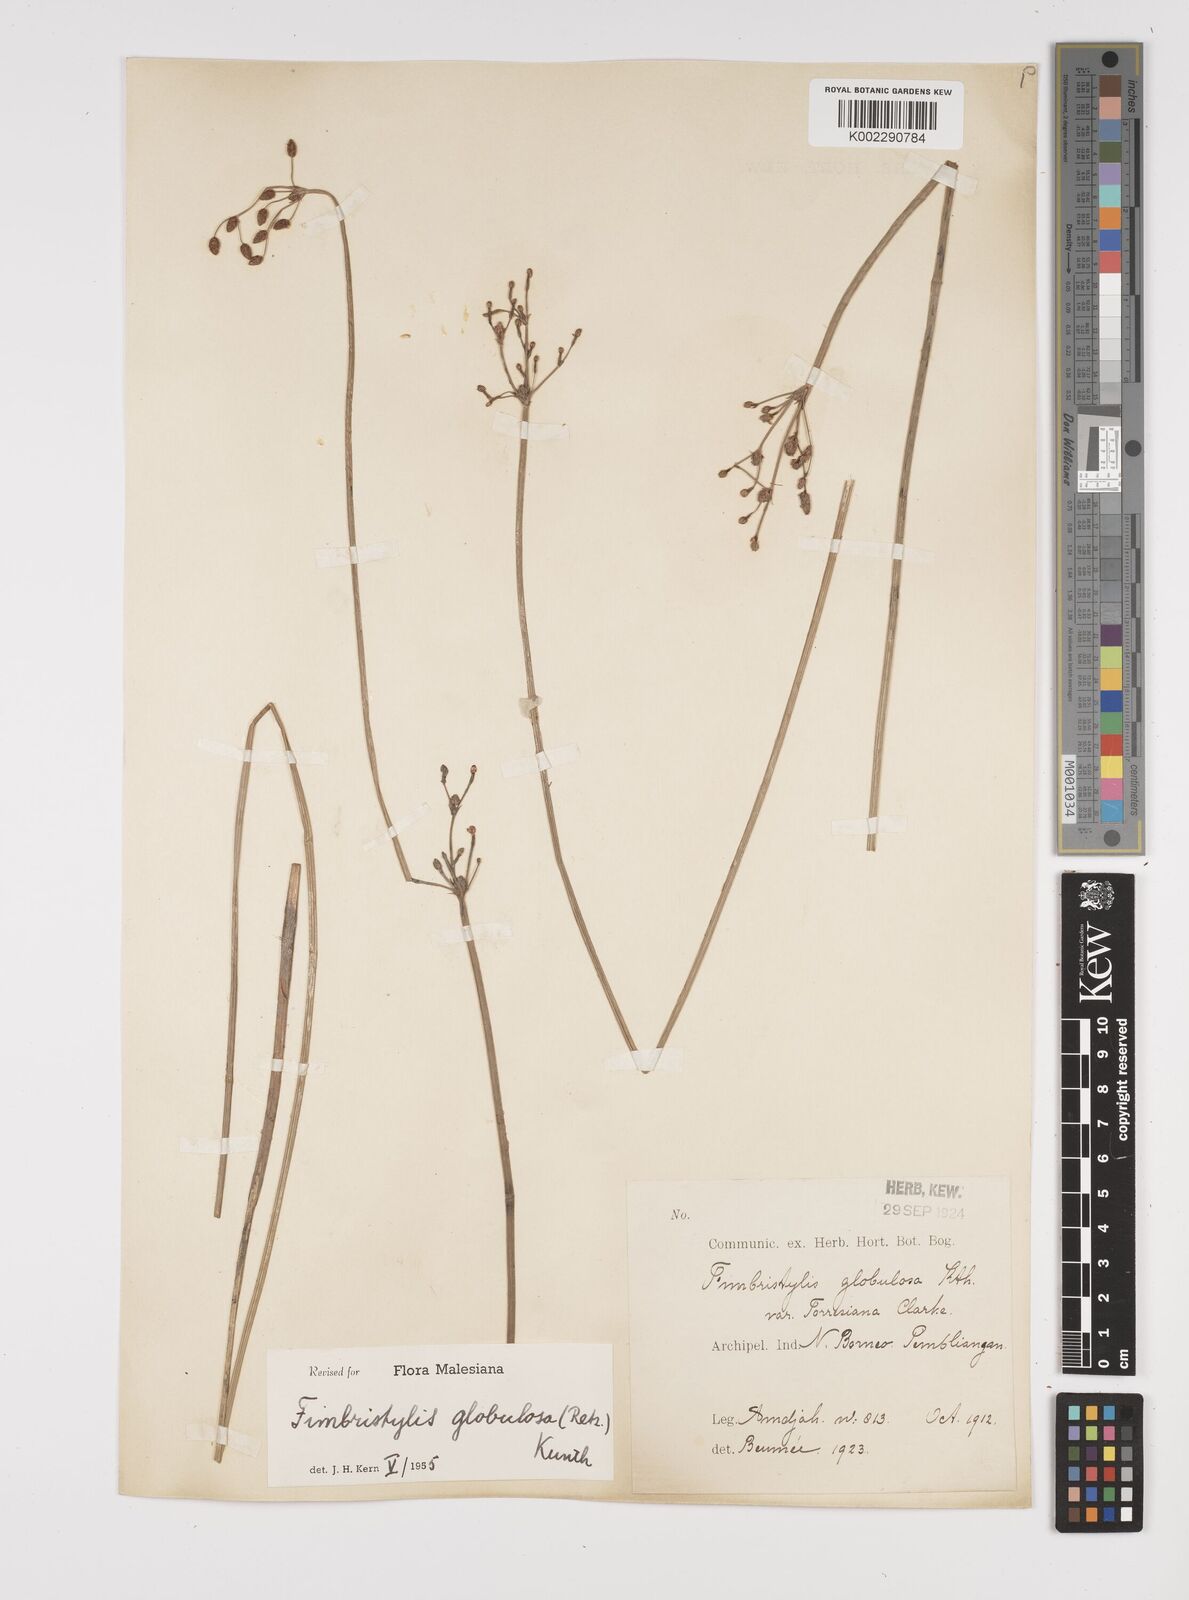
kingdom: Plantae
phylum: Tracheophyta
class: Liliopsida
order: Poales
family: Cyperaceae
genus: Fimbristylis
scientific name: Fimbristylis umbellaris
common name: Globular fimbristylis
